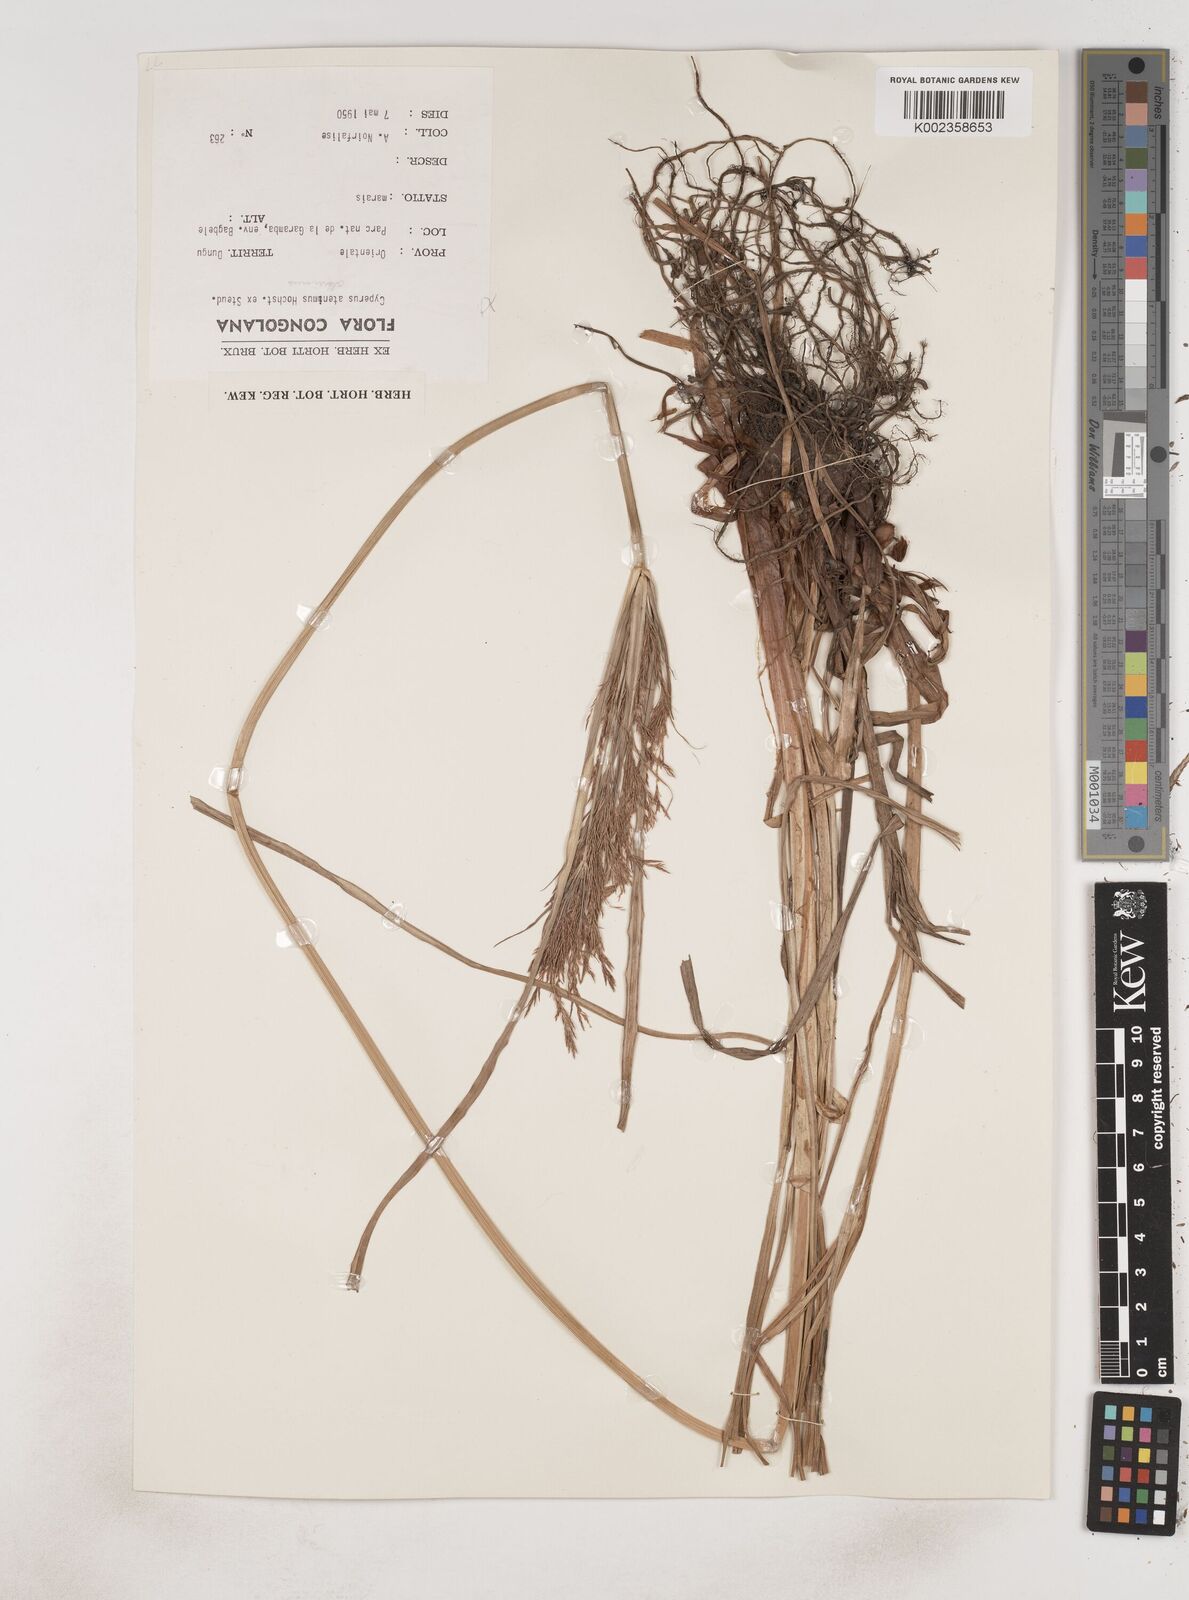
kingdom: Plantae
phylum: Tracheophyta
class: Liliopsida
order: Poales
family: Cyperaceae
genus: Cyperus
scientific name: Cyperus distans
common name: Slender cyperus
